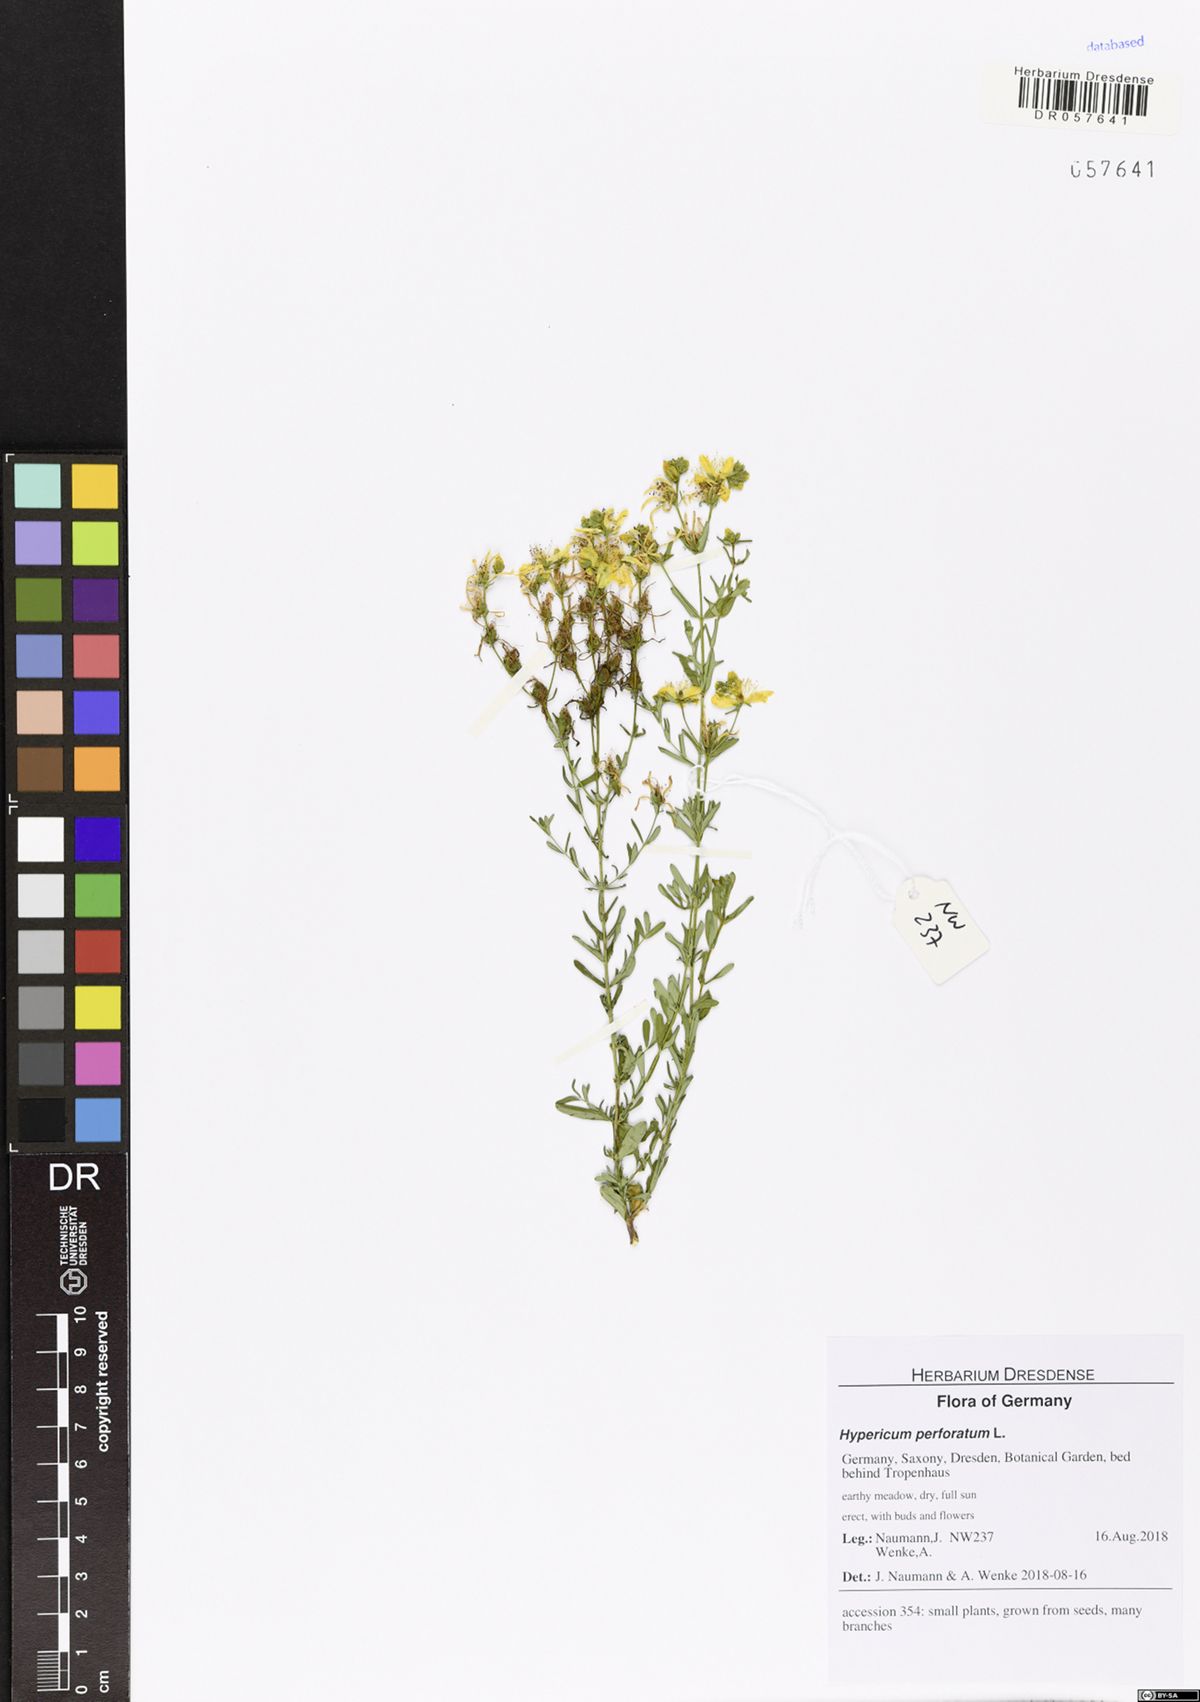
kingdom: Plantae
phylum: Tracheophyta
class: Magnoliopsida
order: Malpighiales
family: Hypericaceae
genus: Hypericum
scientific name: Hypericum perforatum
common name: Common st. johnswort
